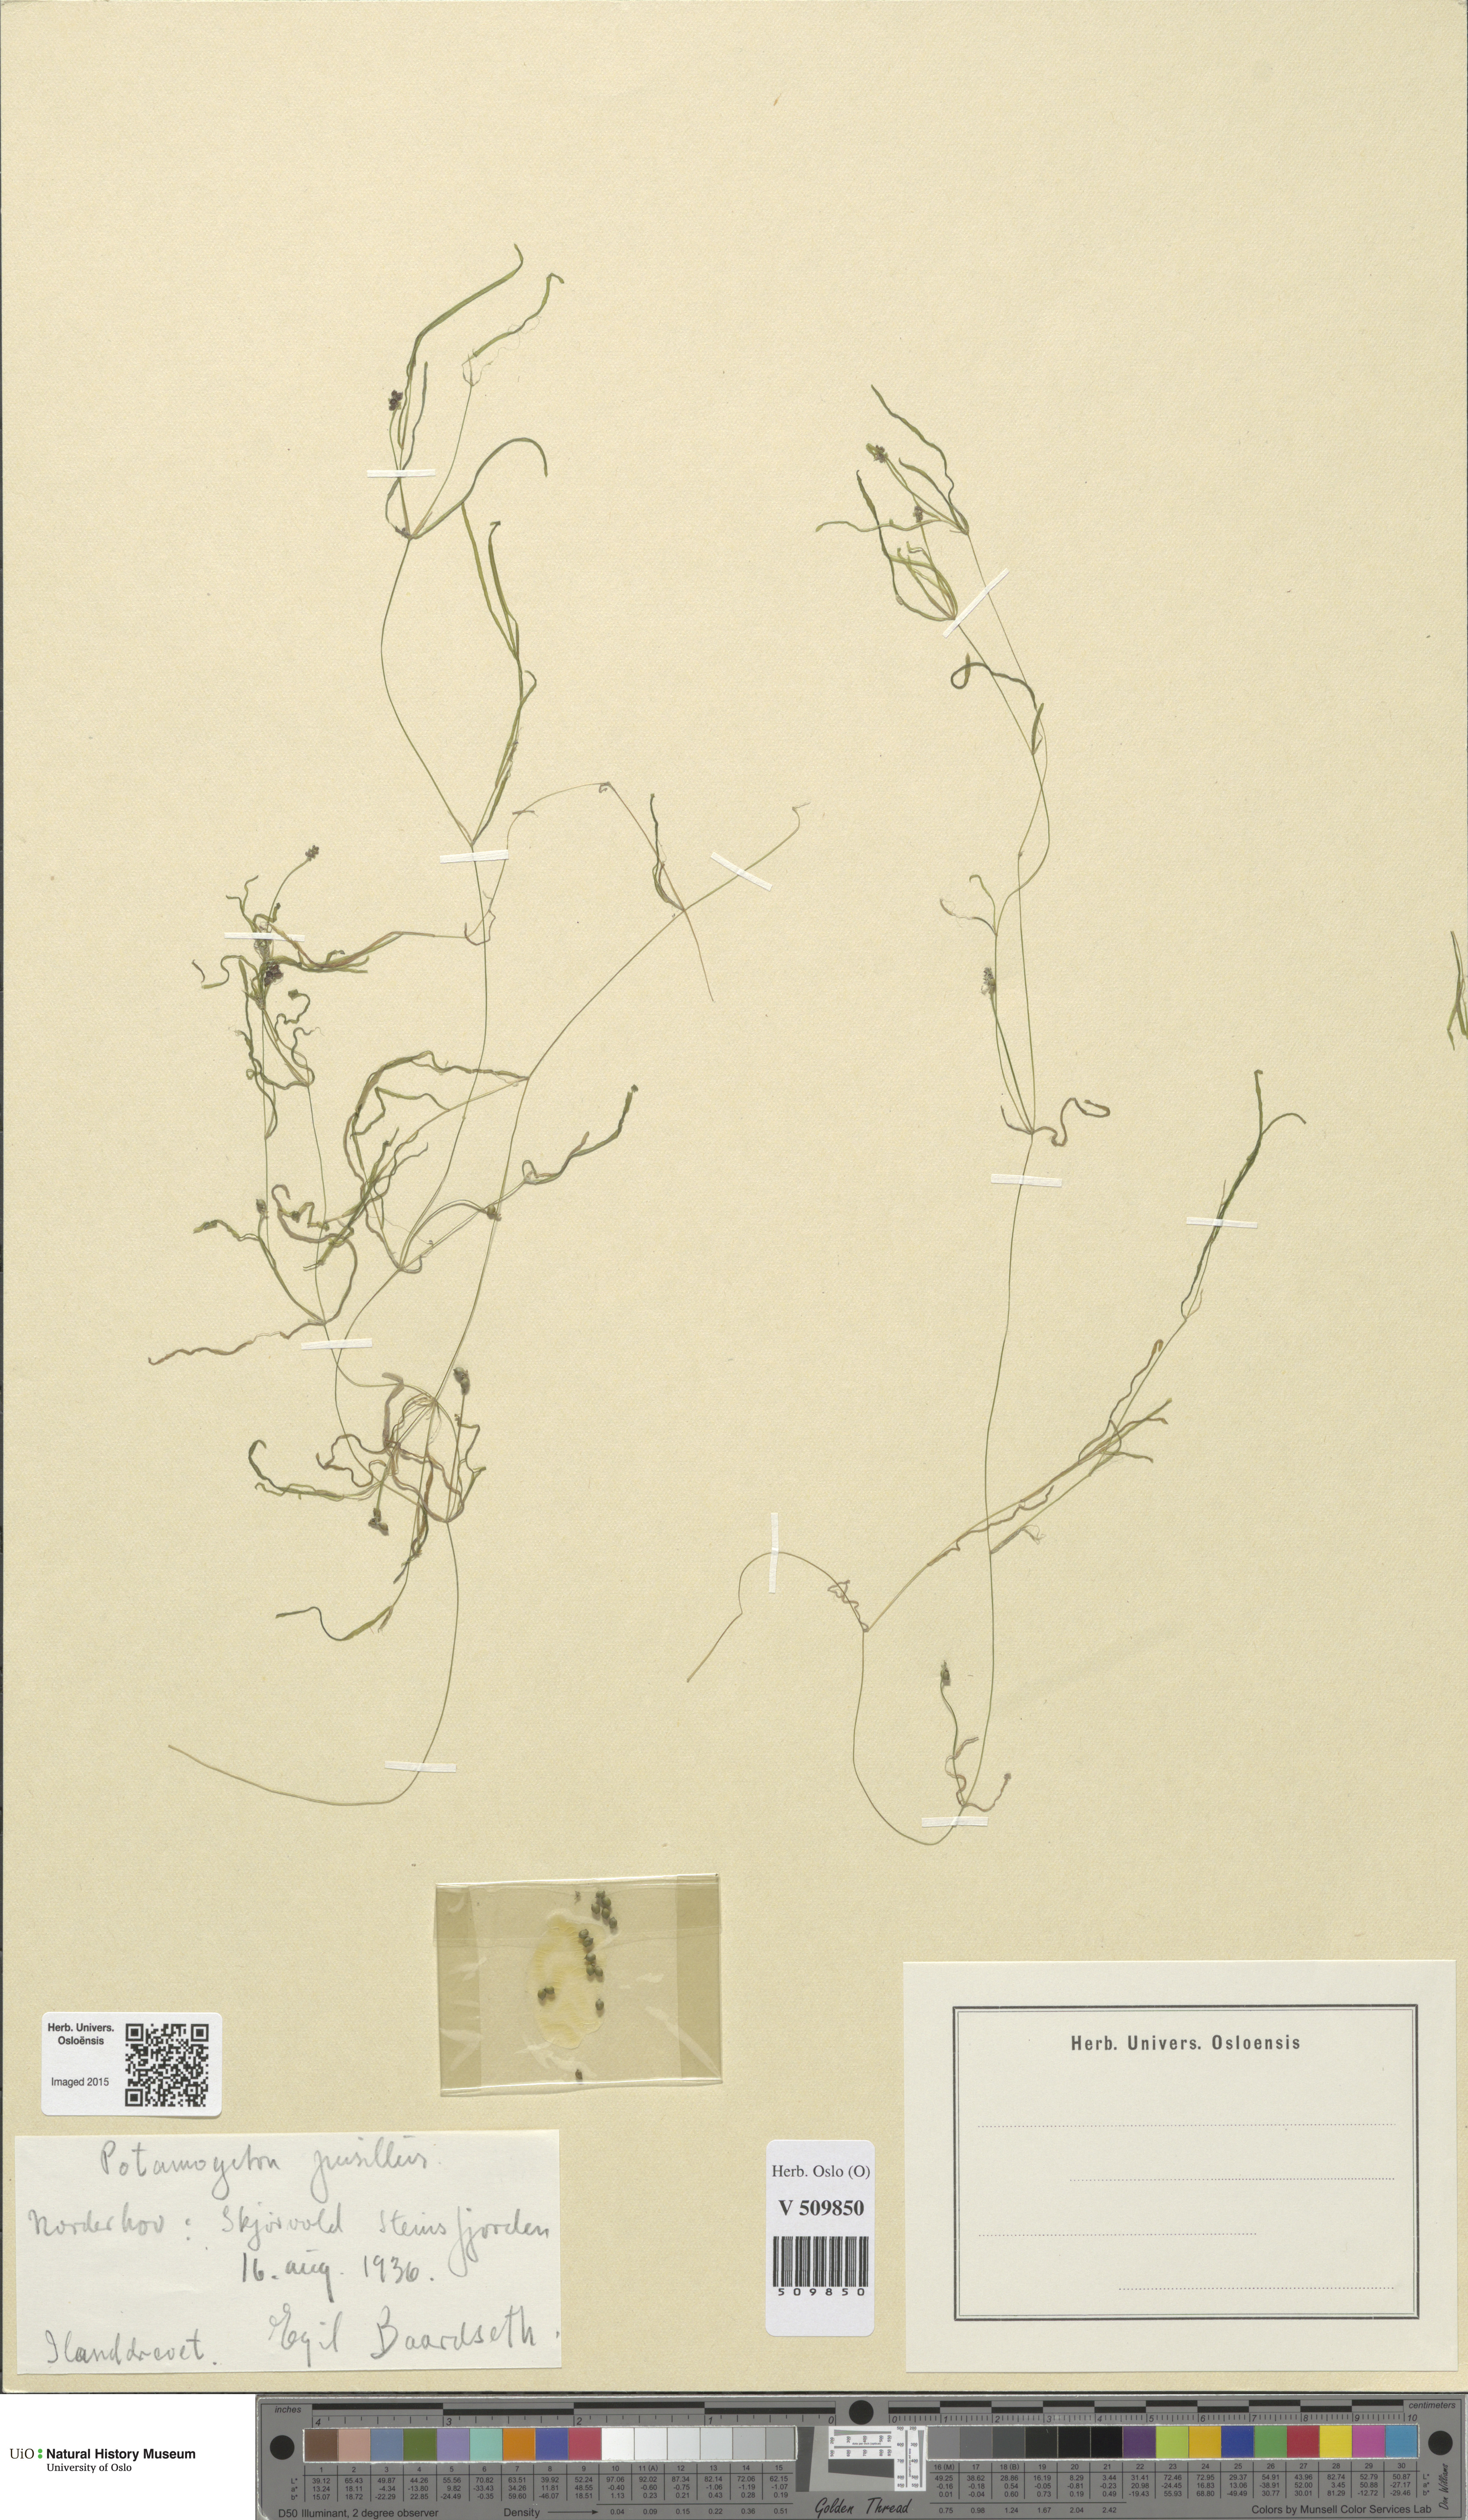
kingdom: Plantae
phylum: Tracheophyta
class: Liliopsida
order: Alismatales
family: Potamogetonaceae
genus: Potamogeton
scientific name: Potamogeton berchtoldii
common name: Small pondweed
